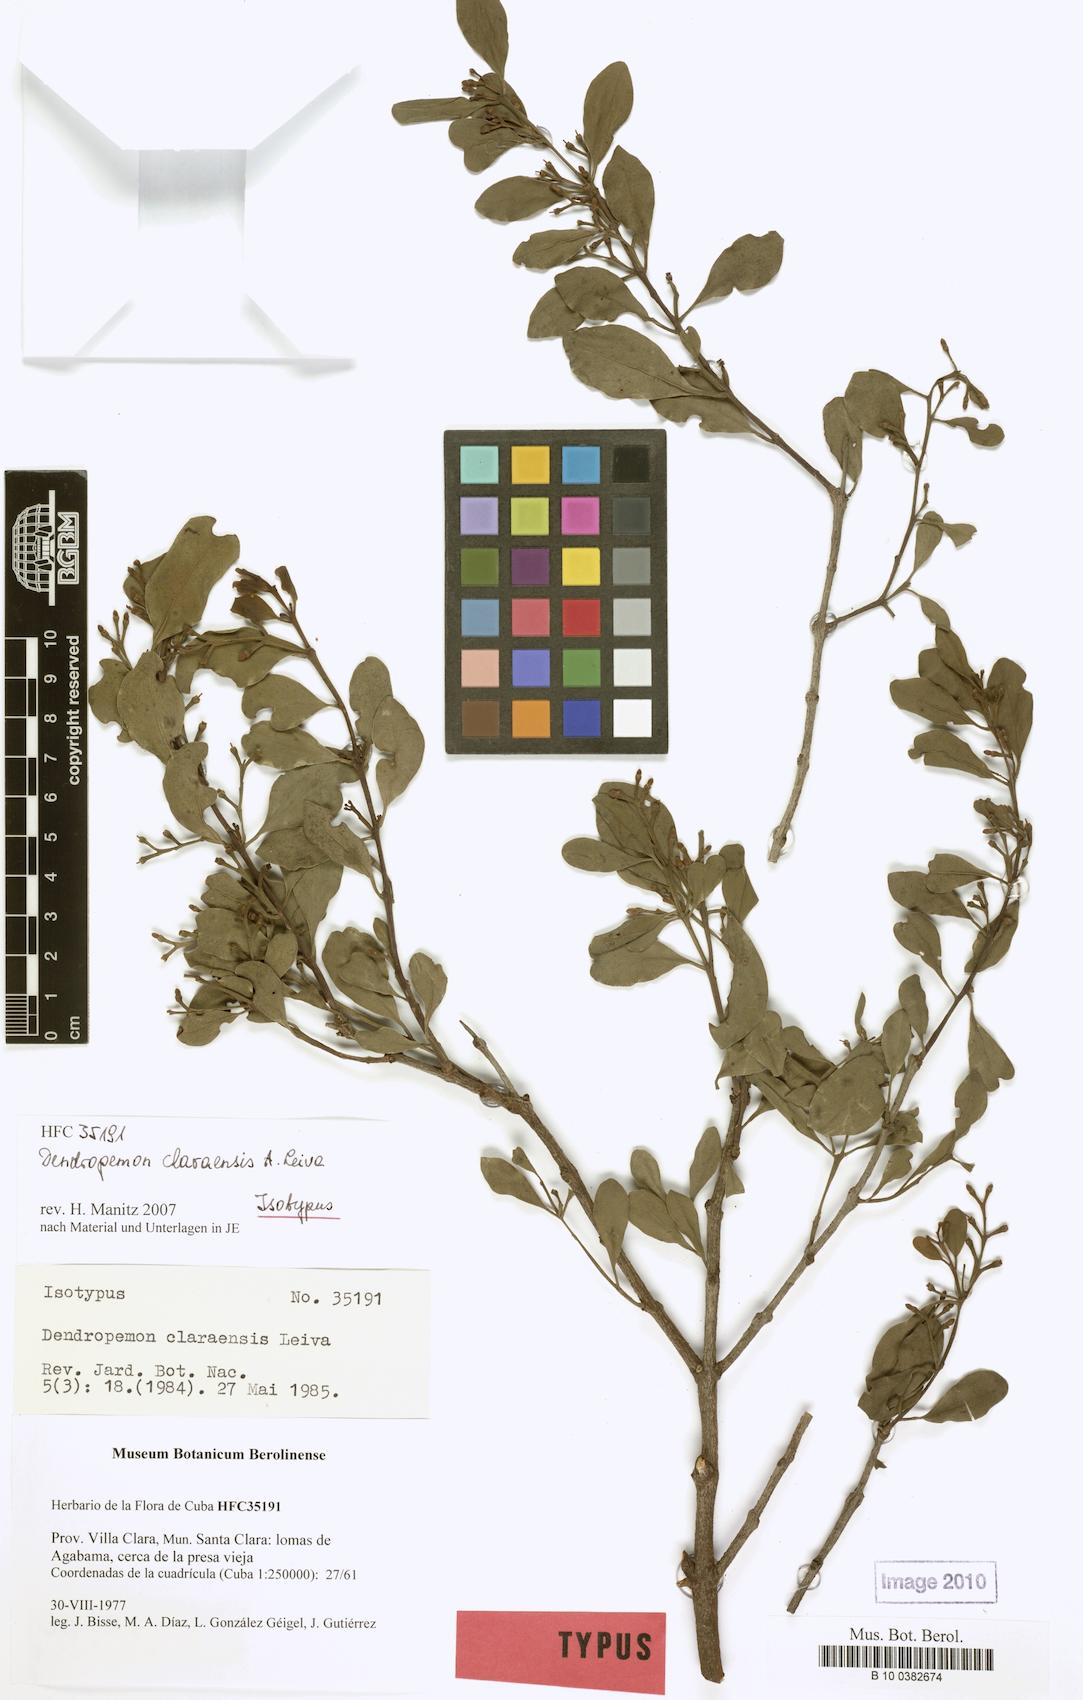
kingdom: Plantae
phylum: Tracheophyta
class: Magnoliopsida
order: Santalales
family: Loranthaceae
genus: Dendropemon
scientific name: Dendropemon platypus
